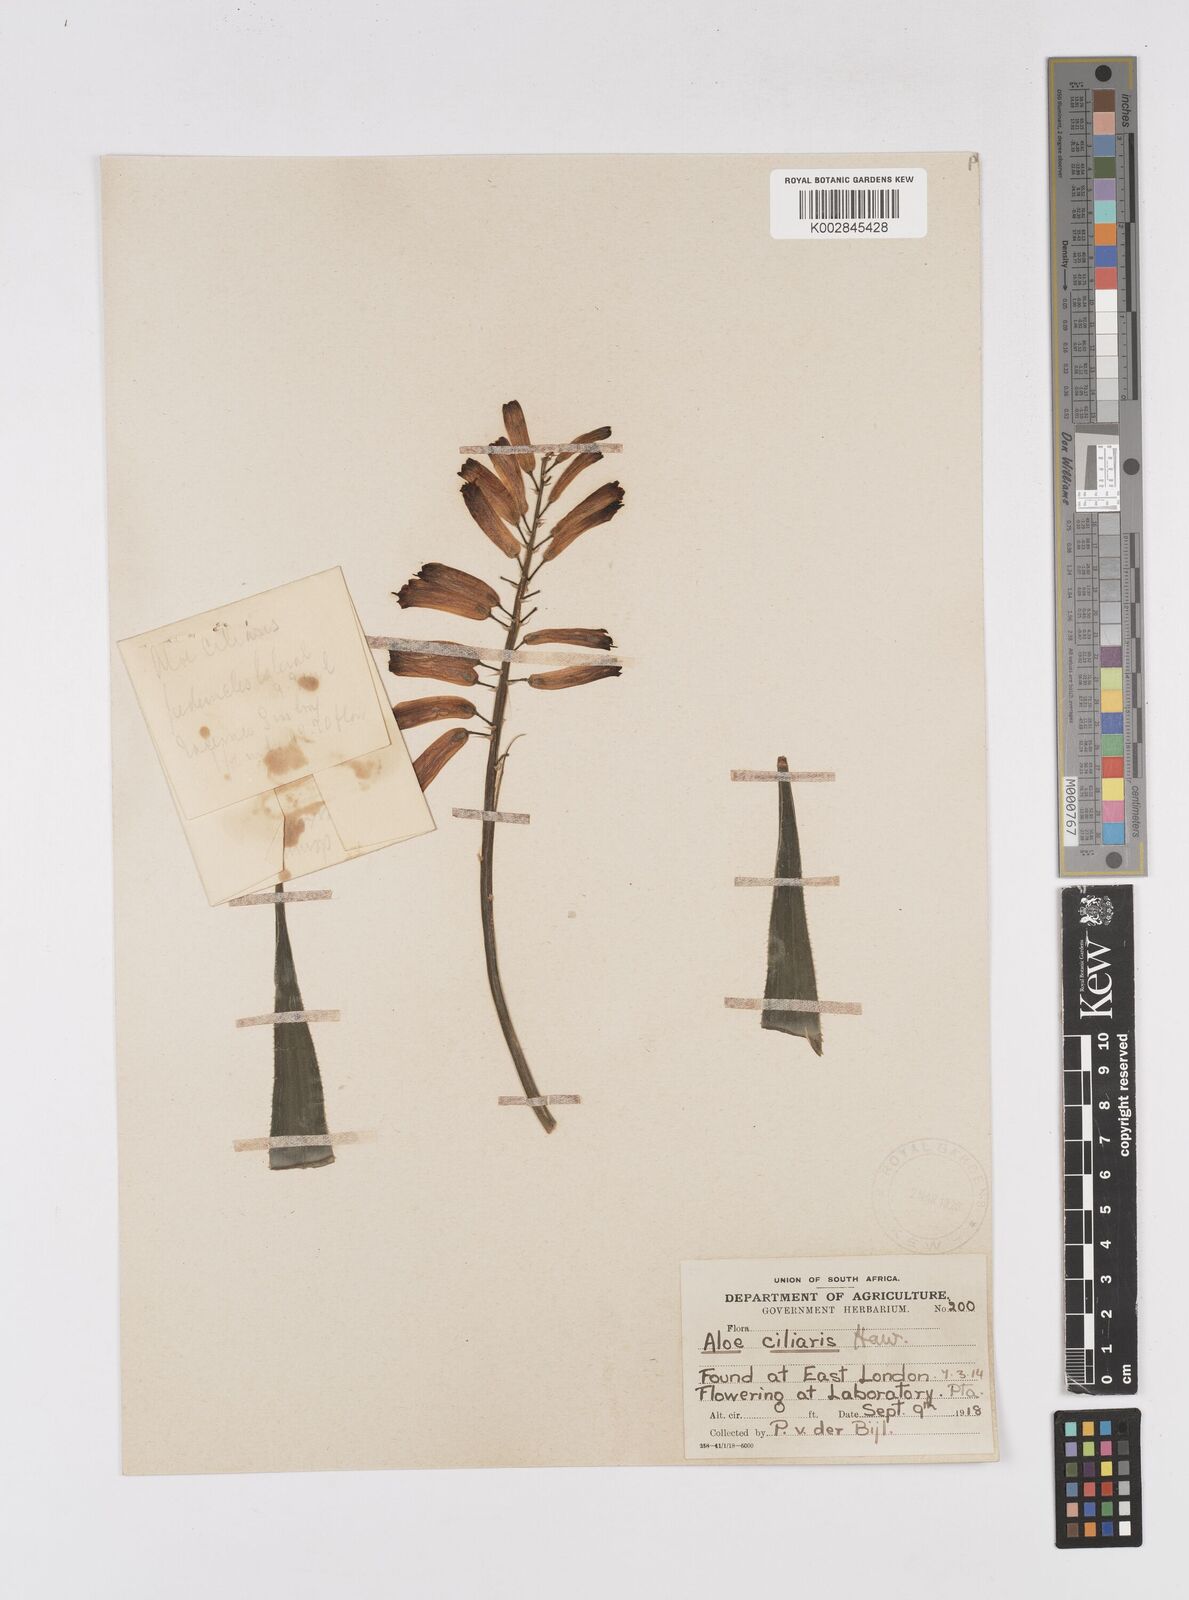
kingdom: Plantae
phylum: Tracheophyta
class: Liliopsida
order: Asparagales
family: Asphodelaceae
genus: Aloiampelos
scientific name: Aloiampelos ciliaris
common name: Climbing aloe
